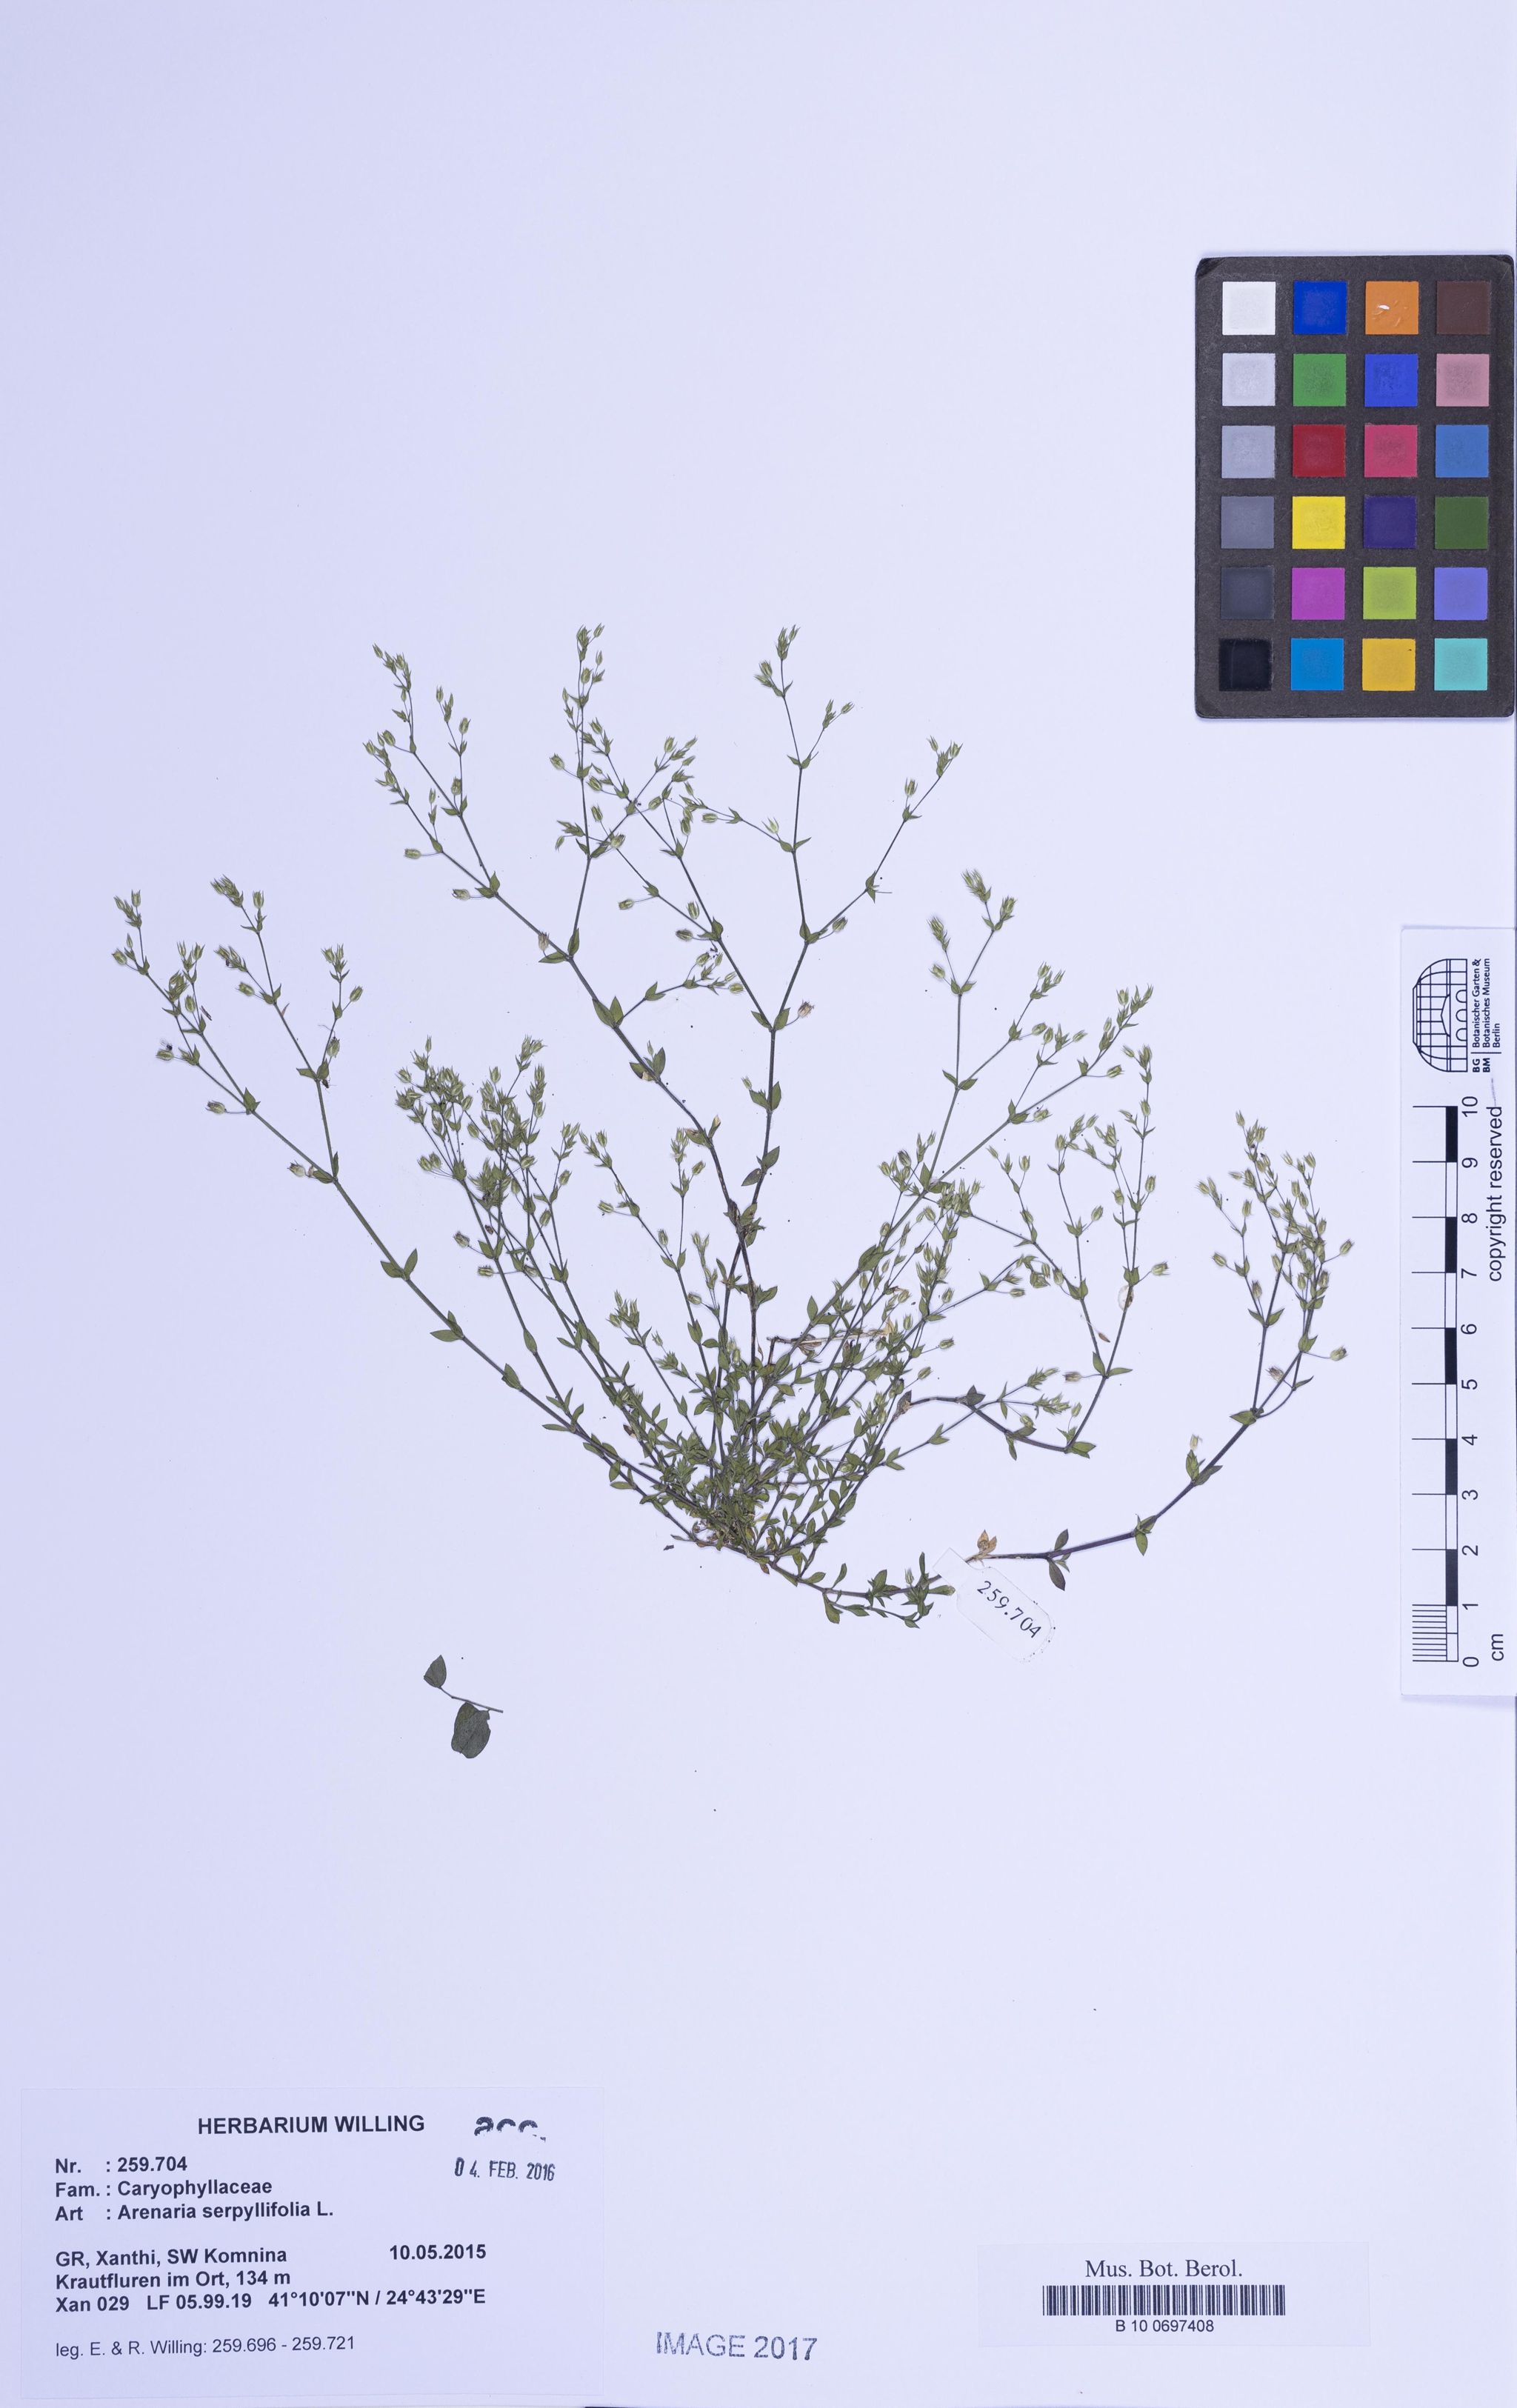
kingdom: Plantae
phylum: Tracheophyta
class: Magnoliopsida
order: Caryophyllales
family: Caryophyllaceae
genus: Arenaria
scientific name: Arenaria serpyllifolia
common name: Thyme-leaved sandwort
